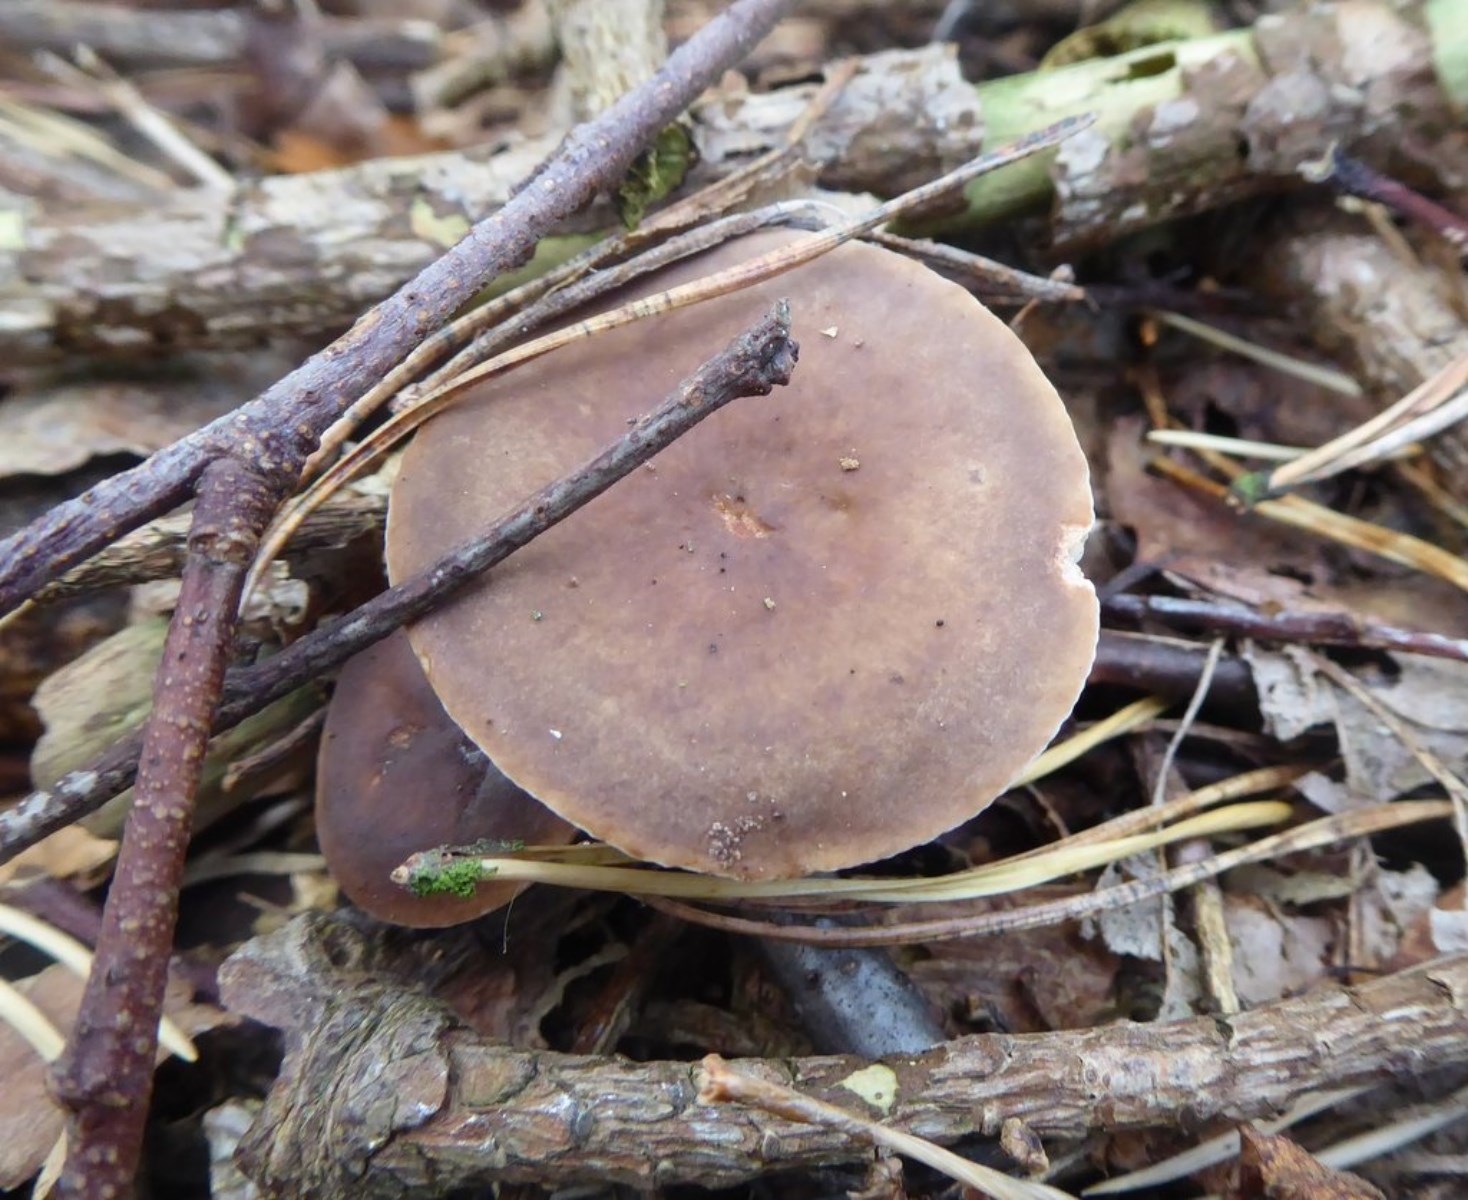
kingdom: Fungi
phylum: Basidiomycota
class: Agaricomycetes
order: Russulales
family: Russulaceae
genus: Lactarius
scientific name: Lactarius hepaticus
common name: leverbrun mælkehat
